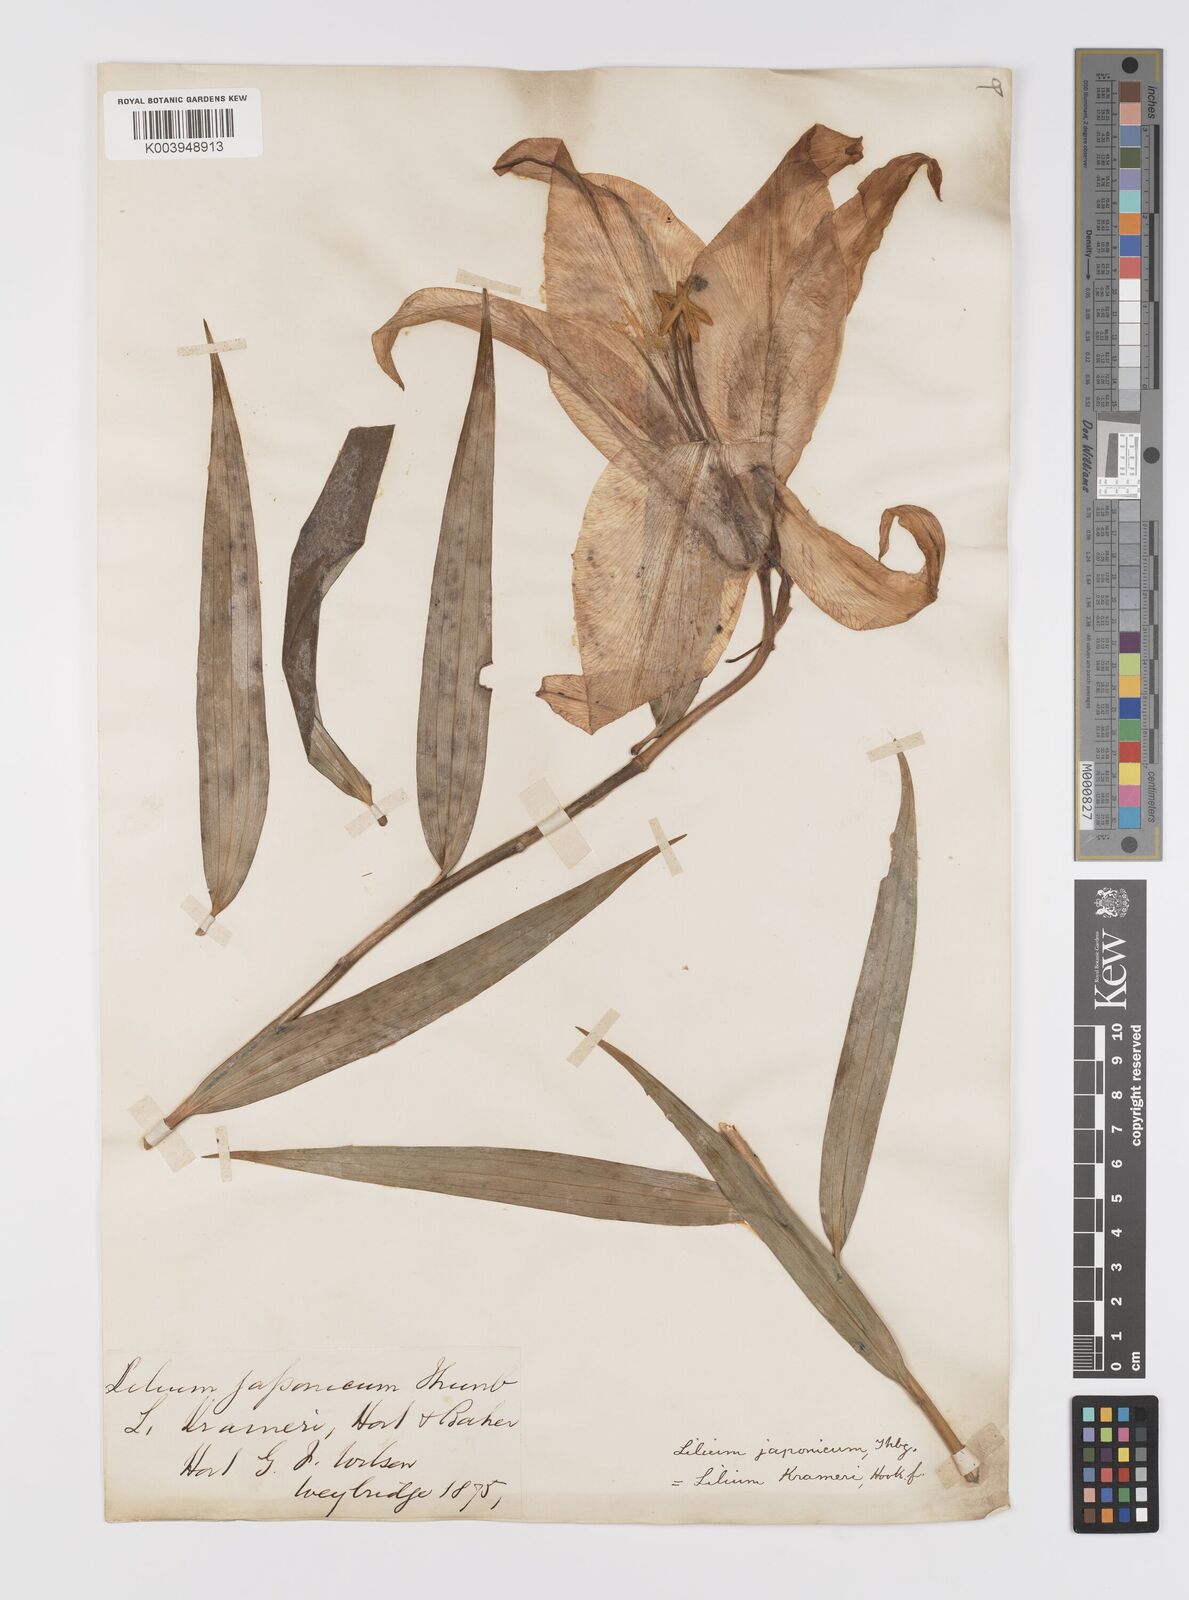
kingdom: Plantae
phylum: Tracheophyta
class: Liliopsida
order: Liliales
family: Liliaceae
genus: Lilium
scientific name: Lilium nobilissimum
